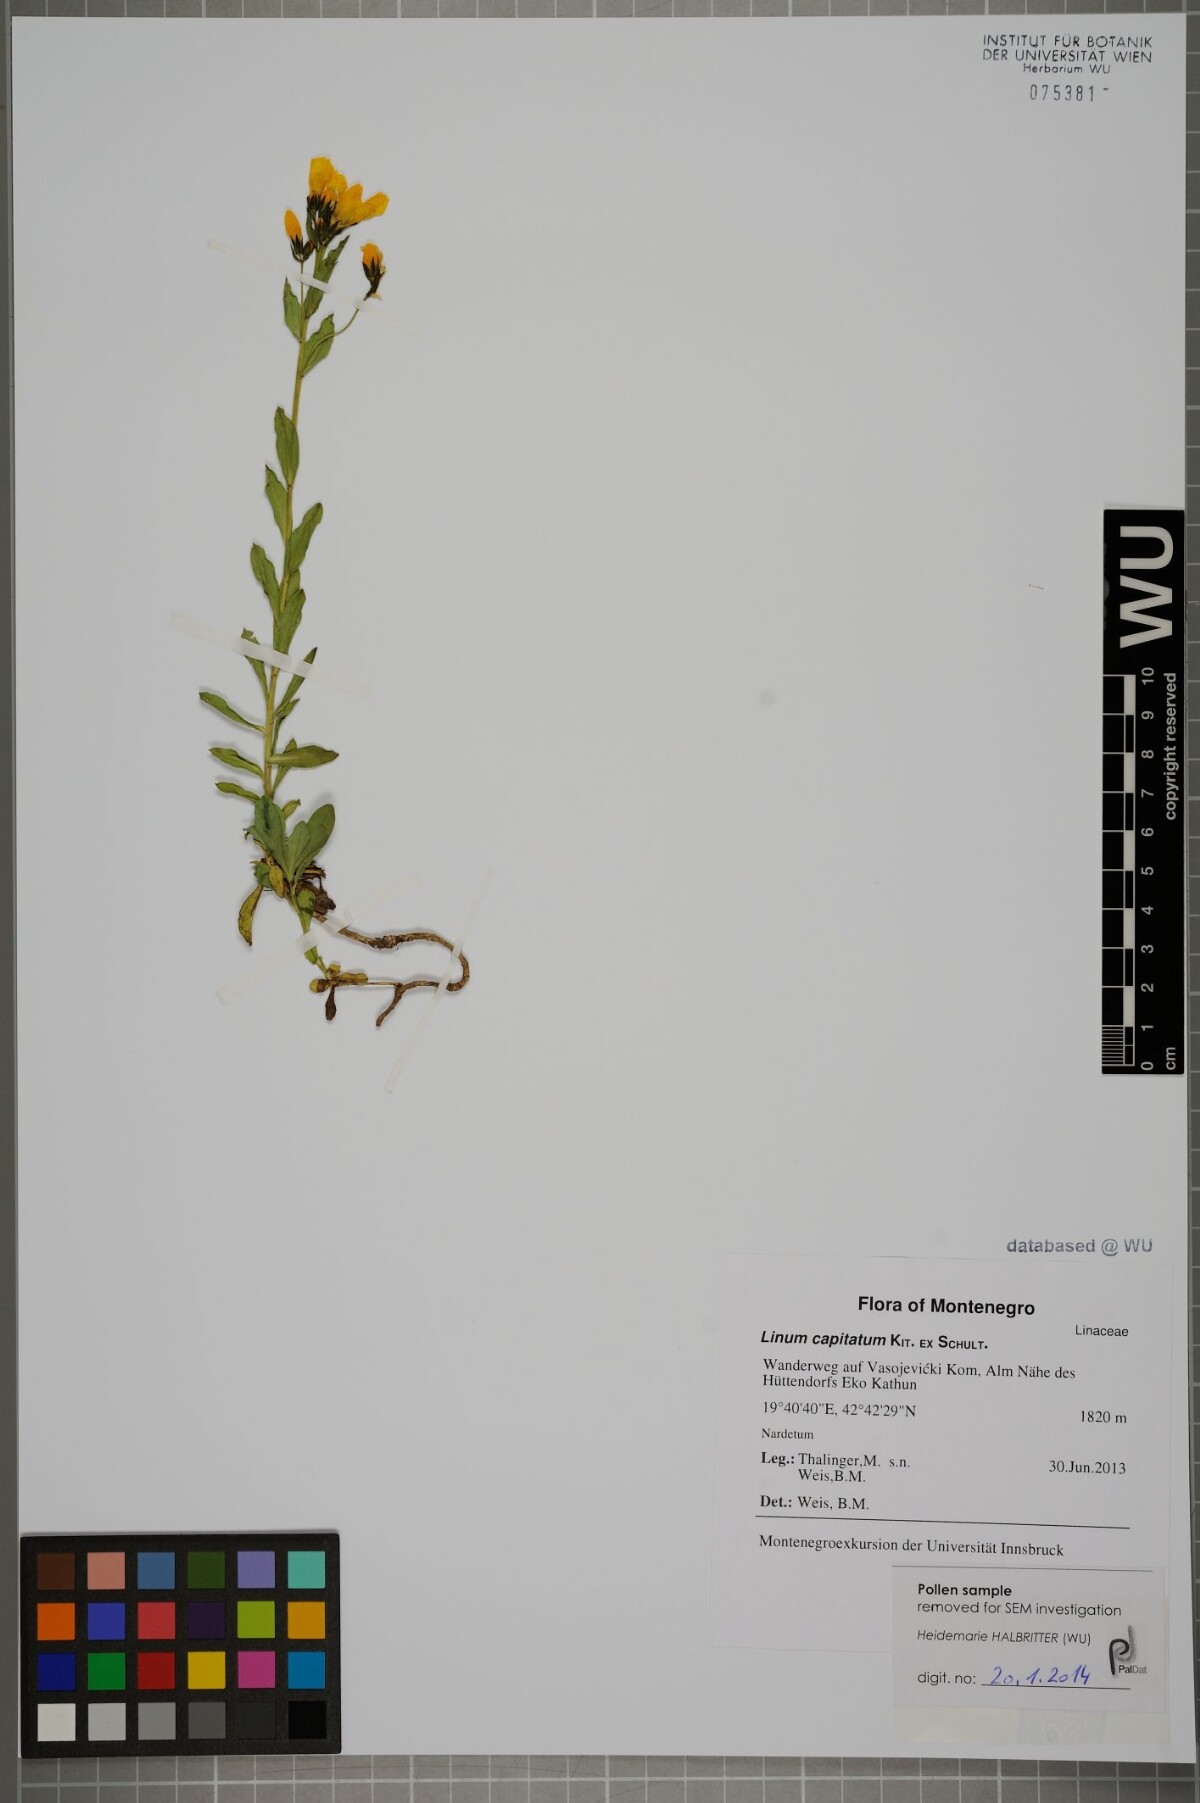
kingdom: Plantae
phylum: Tracheophyta
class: Magnoliopsida
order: Malpighiales
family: Linaceae
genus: Linum
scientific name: Linum capitatum
